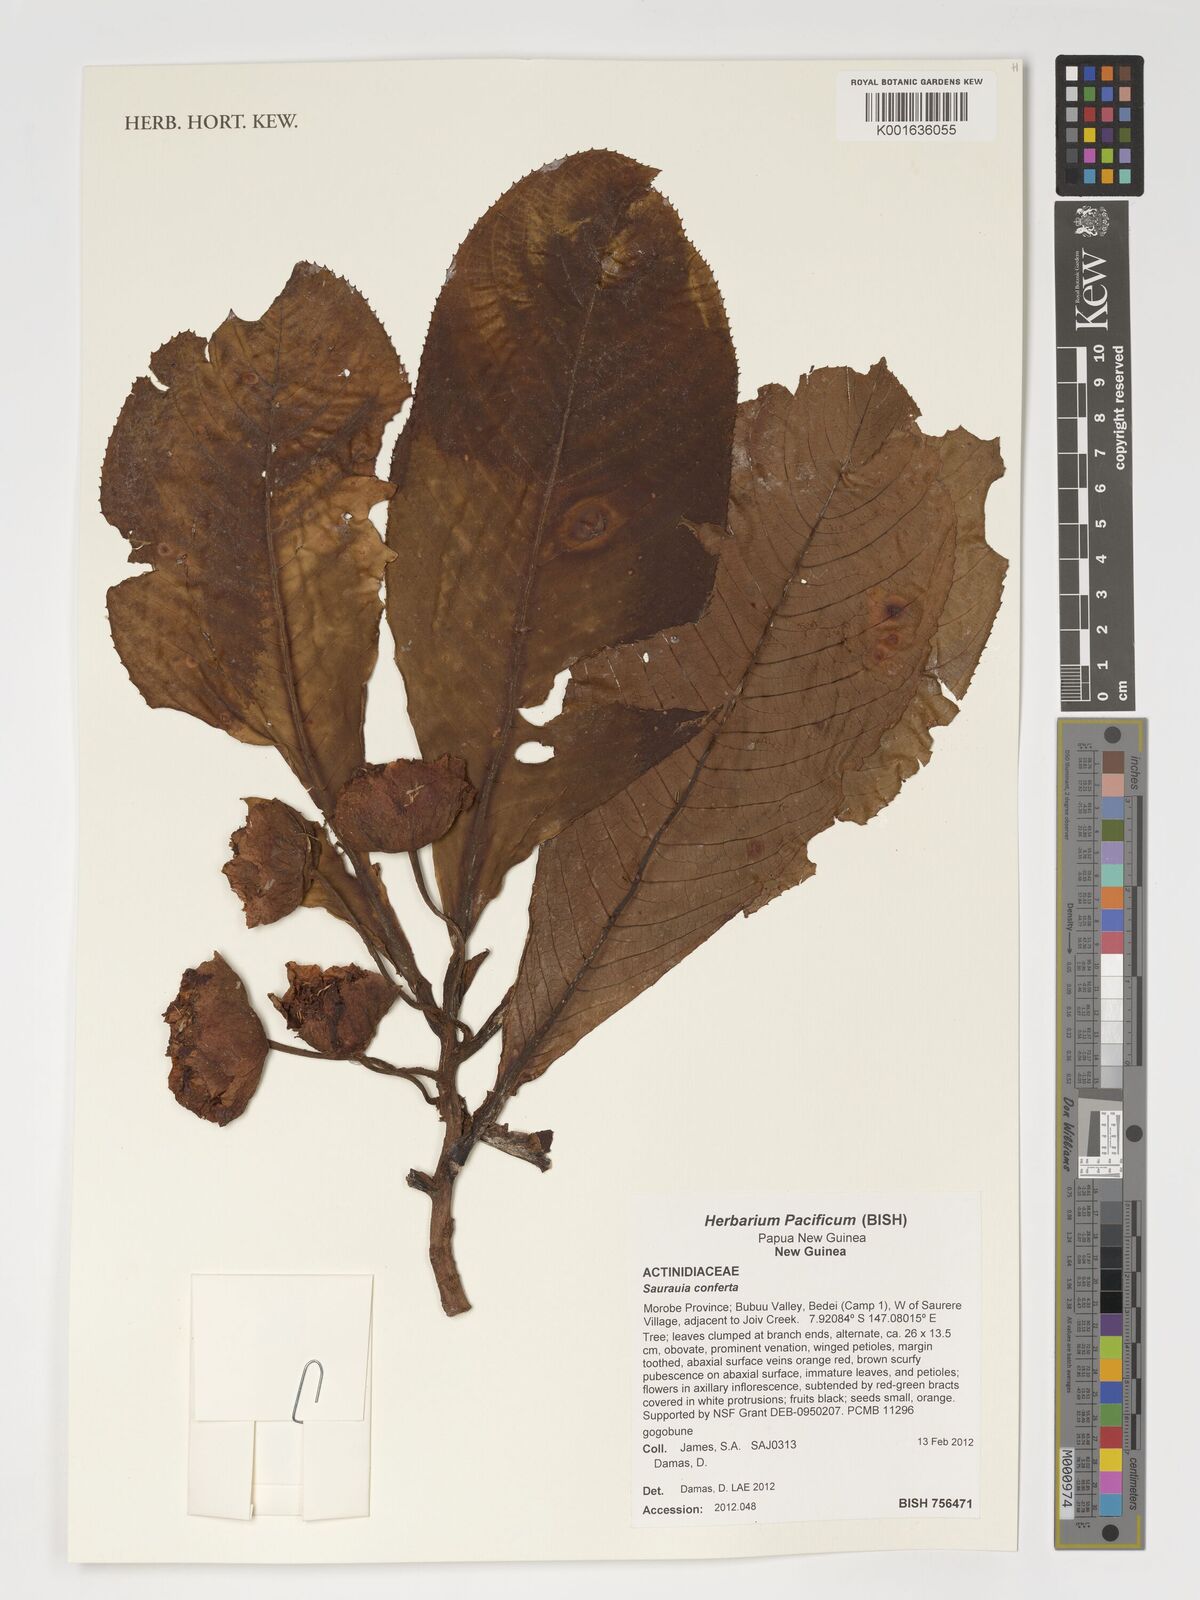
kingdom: Plantae
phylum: Tracheophyta
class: Magnoliopsida
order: Ericales
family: Actinidiaceae
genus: Saurauia
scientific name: Saurauia conferta
